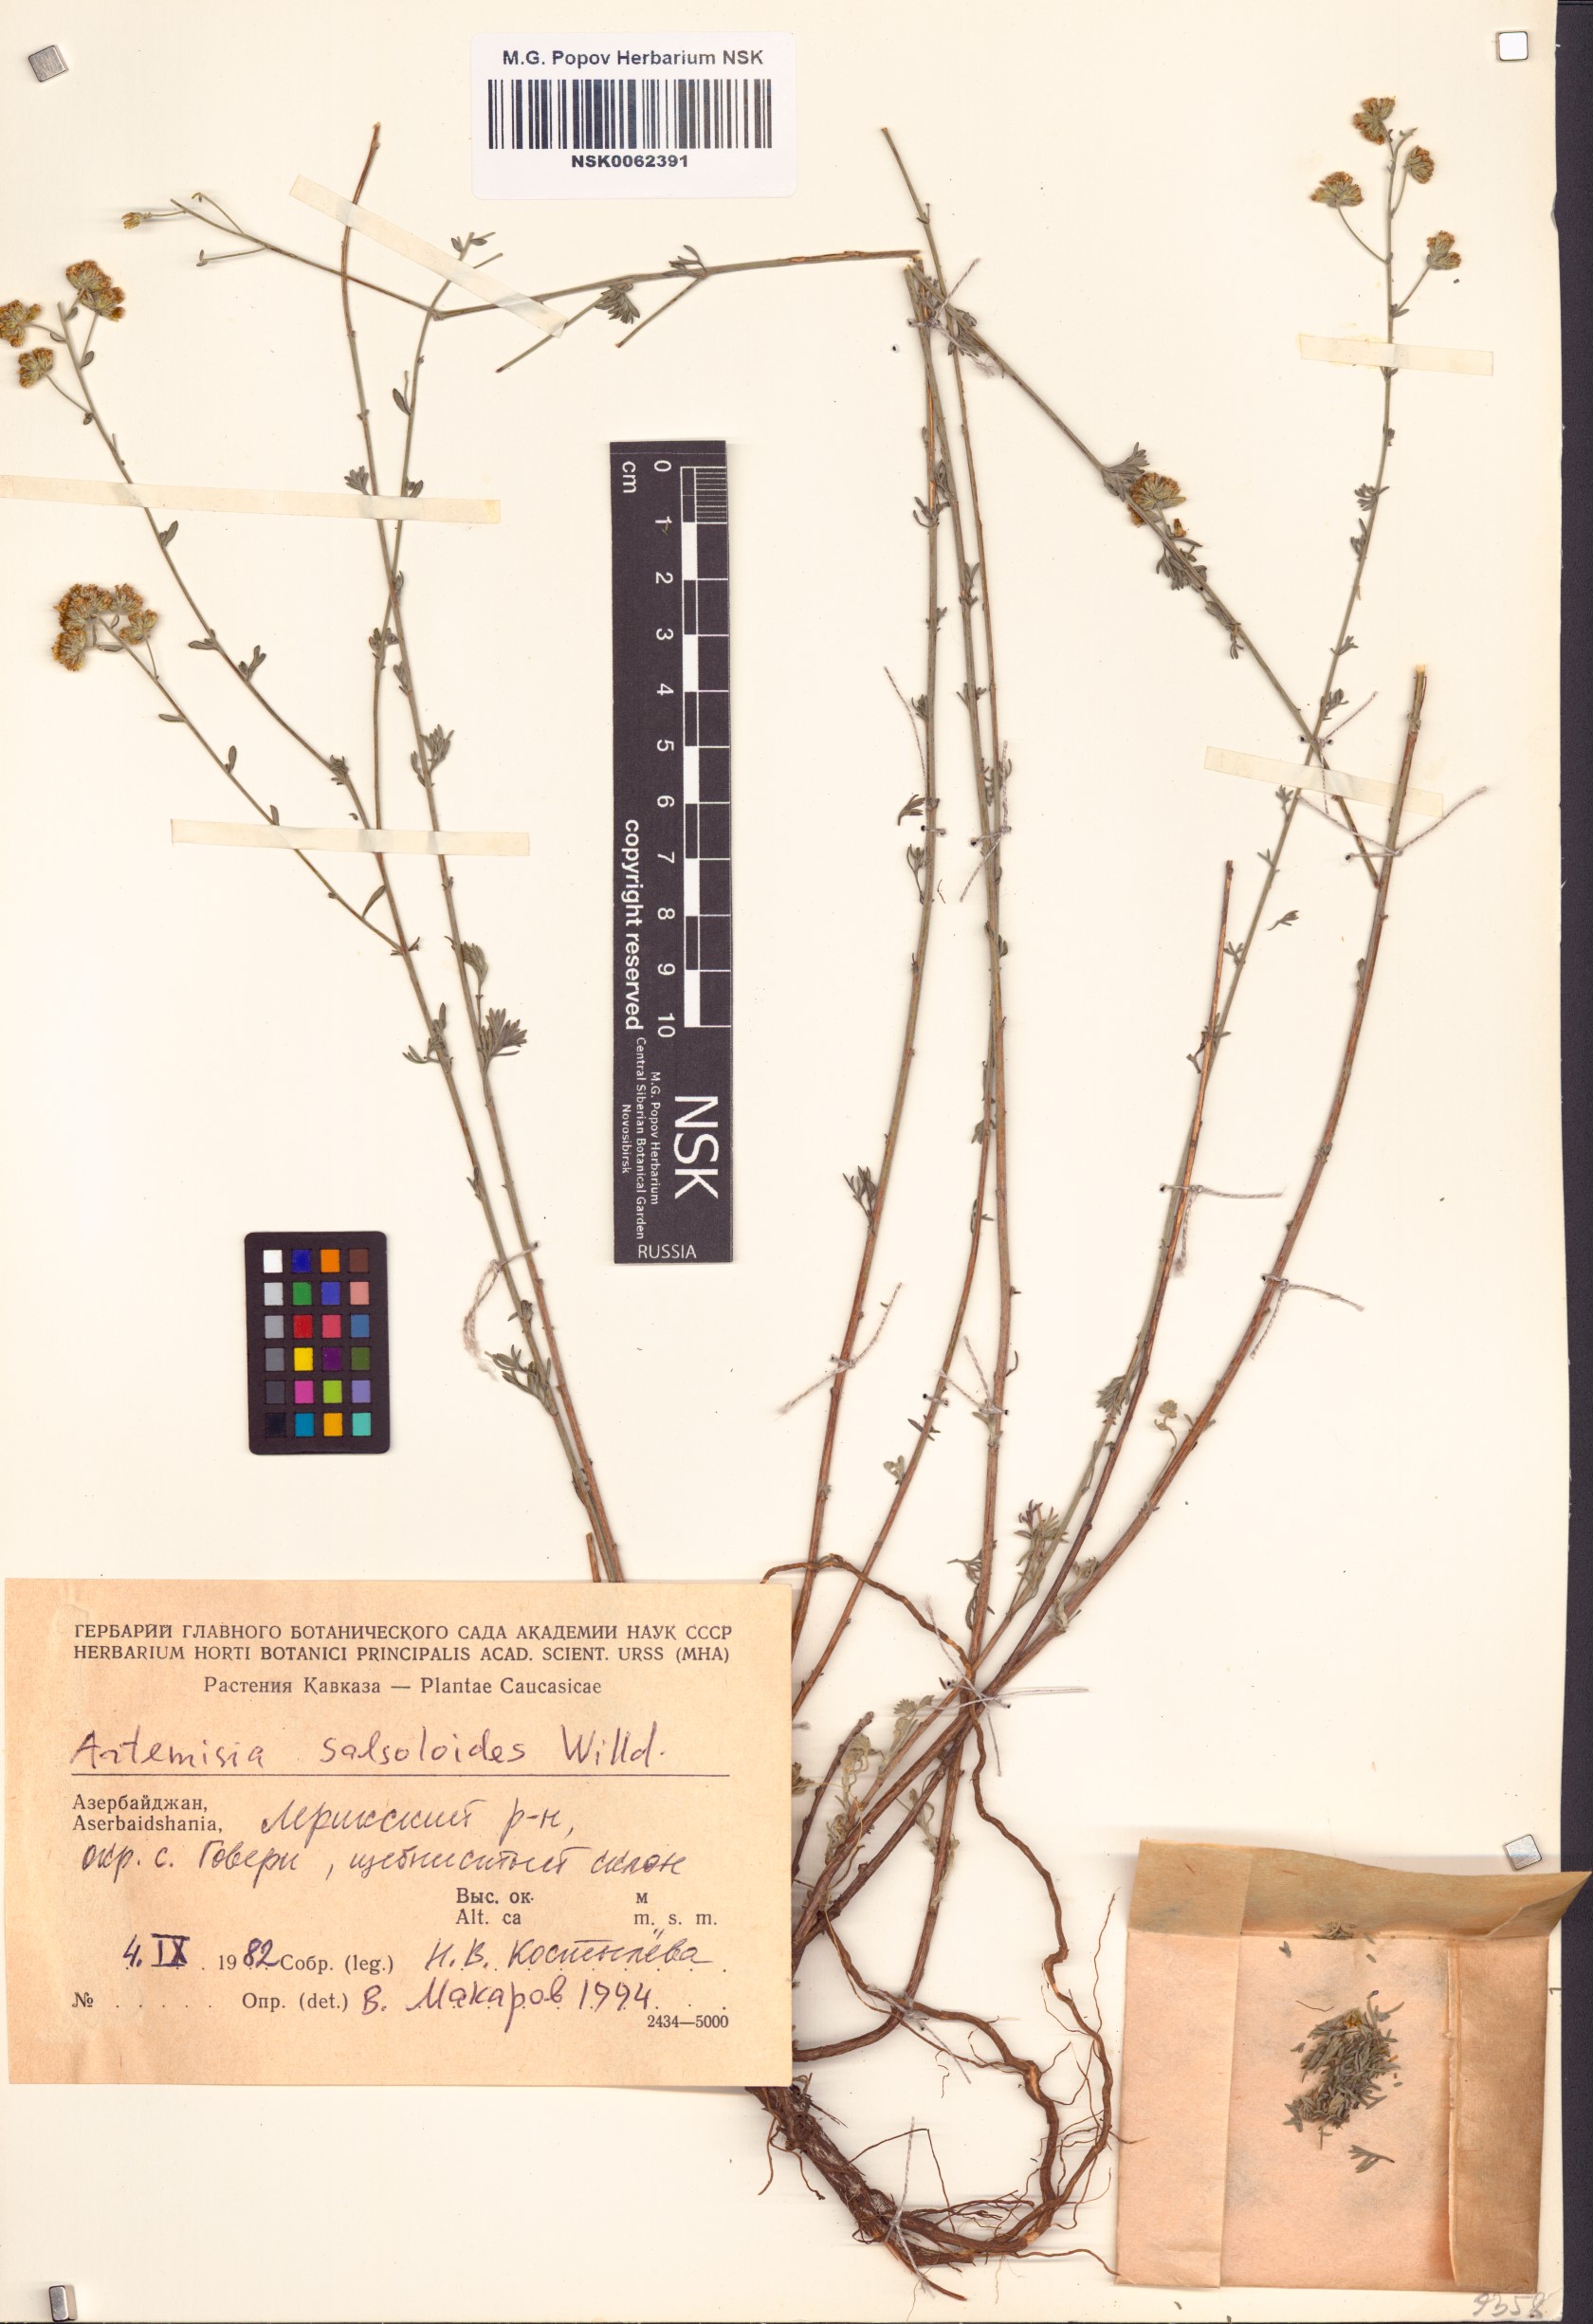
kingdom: Plantae
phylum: Tracheophyta
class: Magnoliopsida
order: Asterales
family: Asteraceae
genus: Artemisia
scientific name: Artemisia salsoloides
